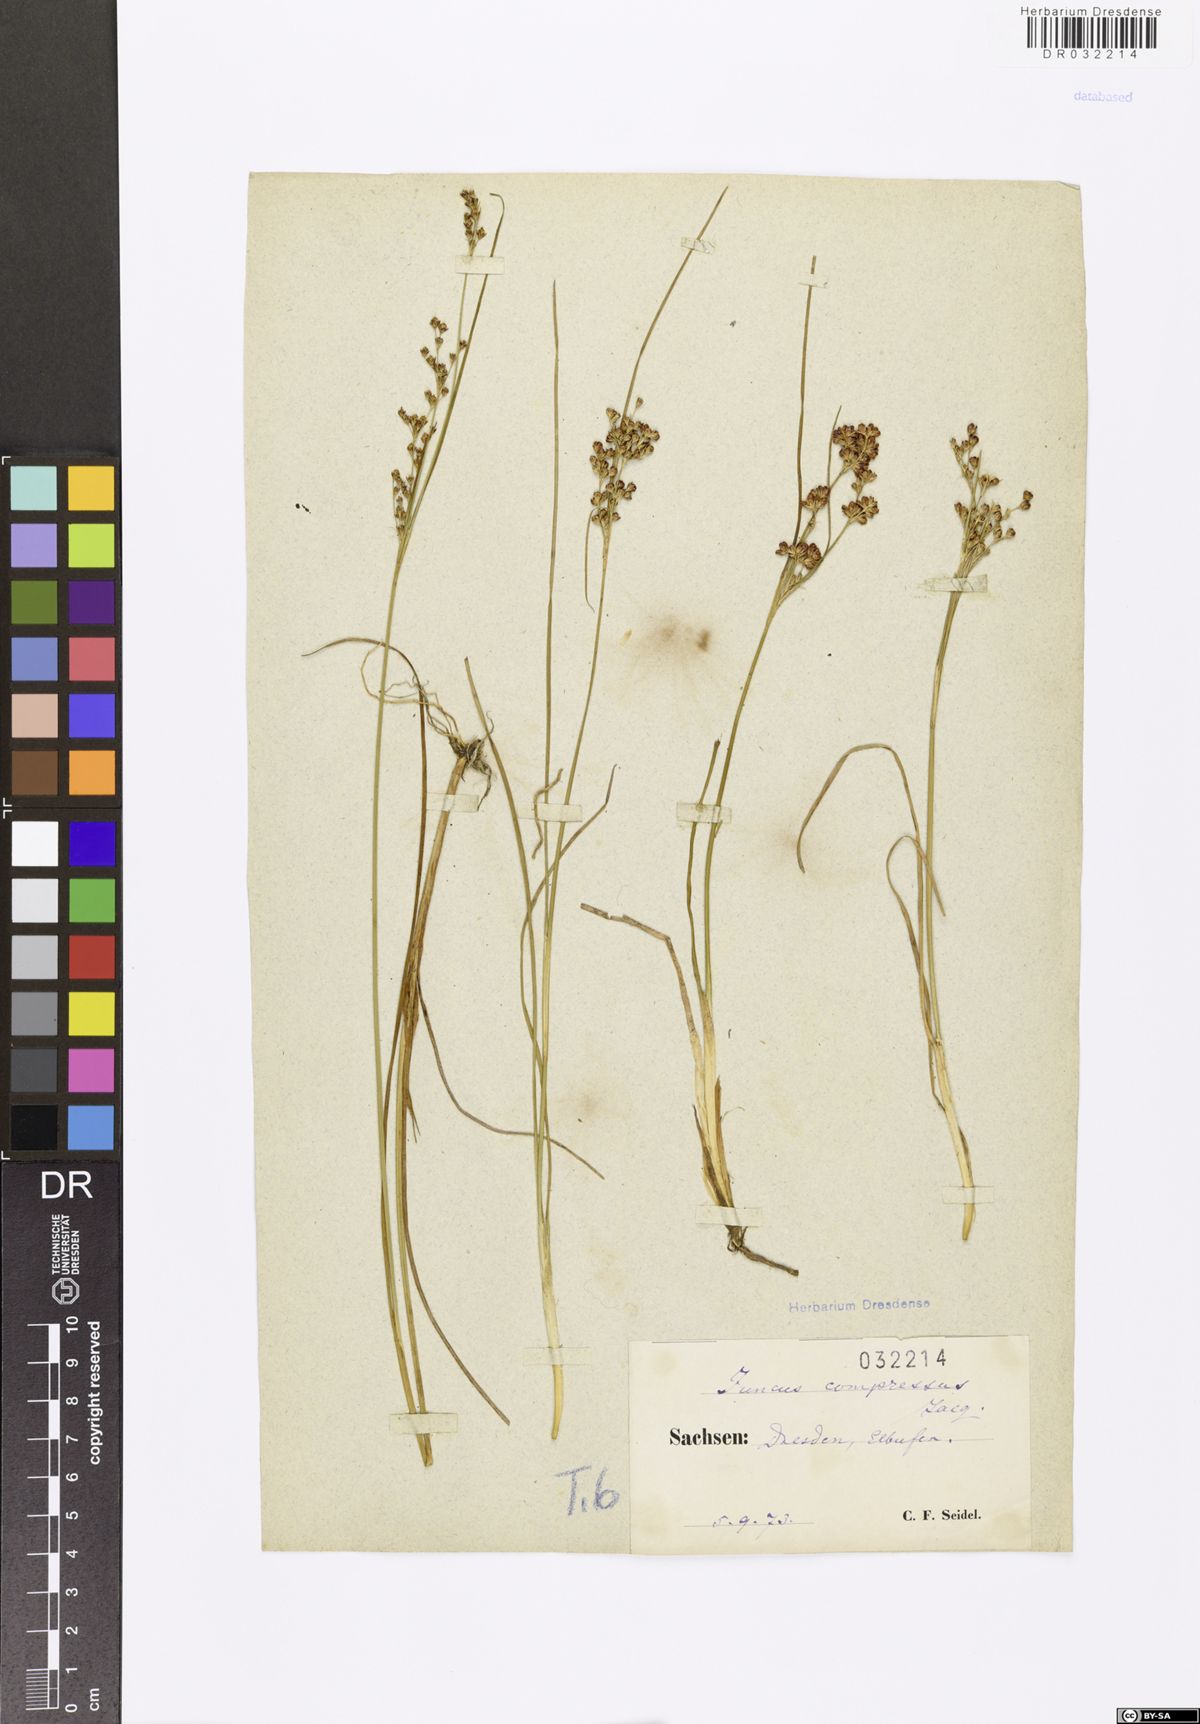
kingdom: Plantae
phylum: Tracheophyta
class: Liliopsida
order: Poales
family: Juncaceae
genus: Juncus
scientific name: Juncus compressus
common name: Round-fruited rush
